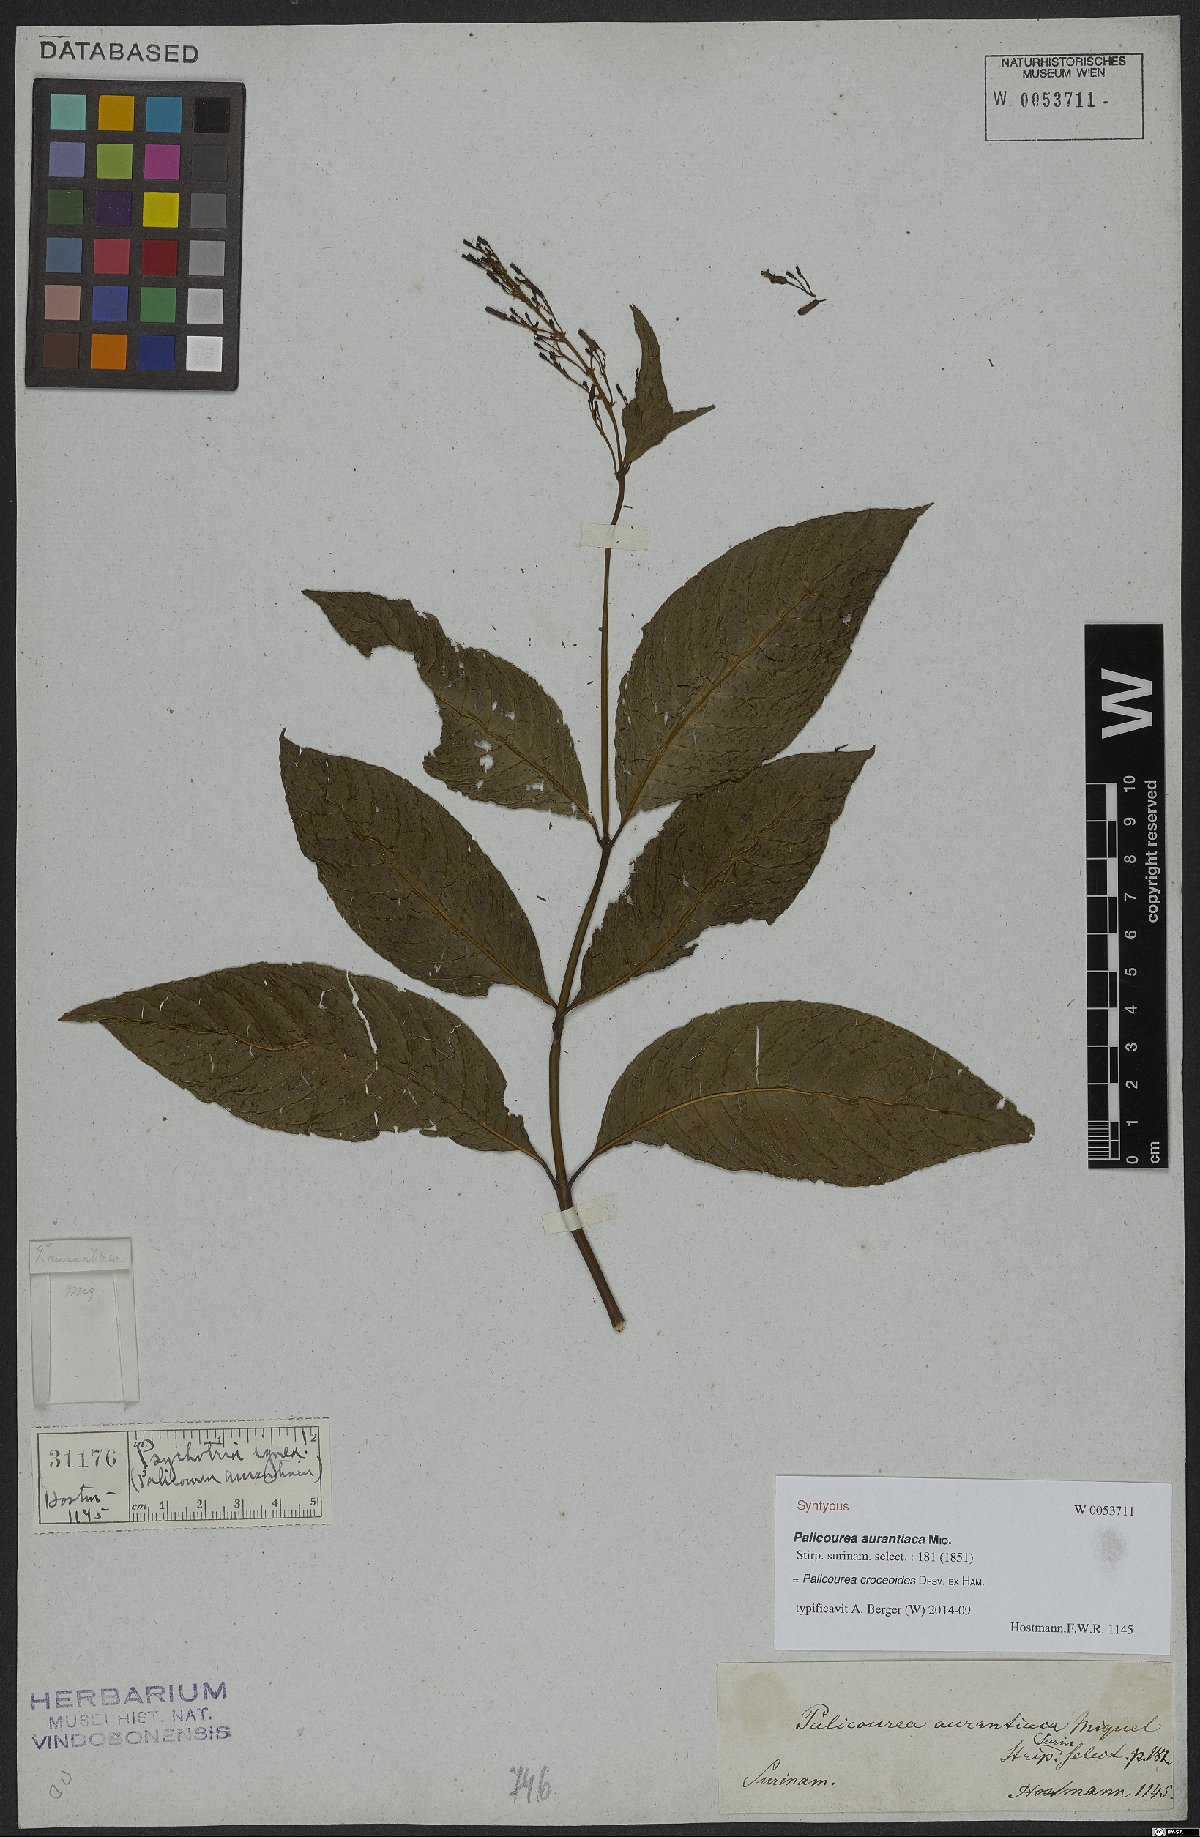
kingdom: Plantae
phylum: Tracheophyta
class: Magnoliopsida
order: Gentianales
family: Rubiaceae
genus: Palicourea
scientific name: Palicourea croceoides
